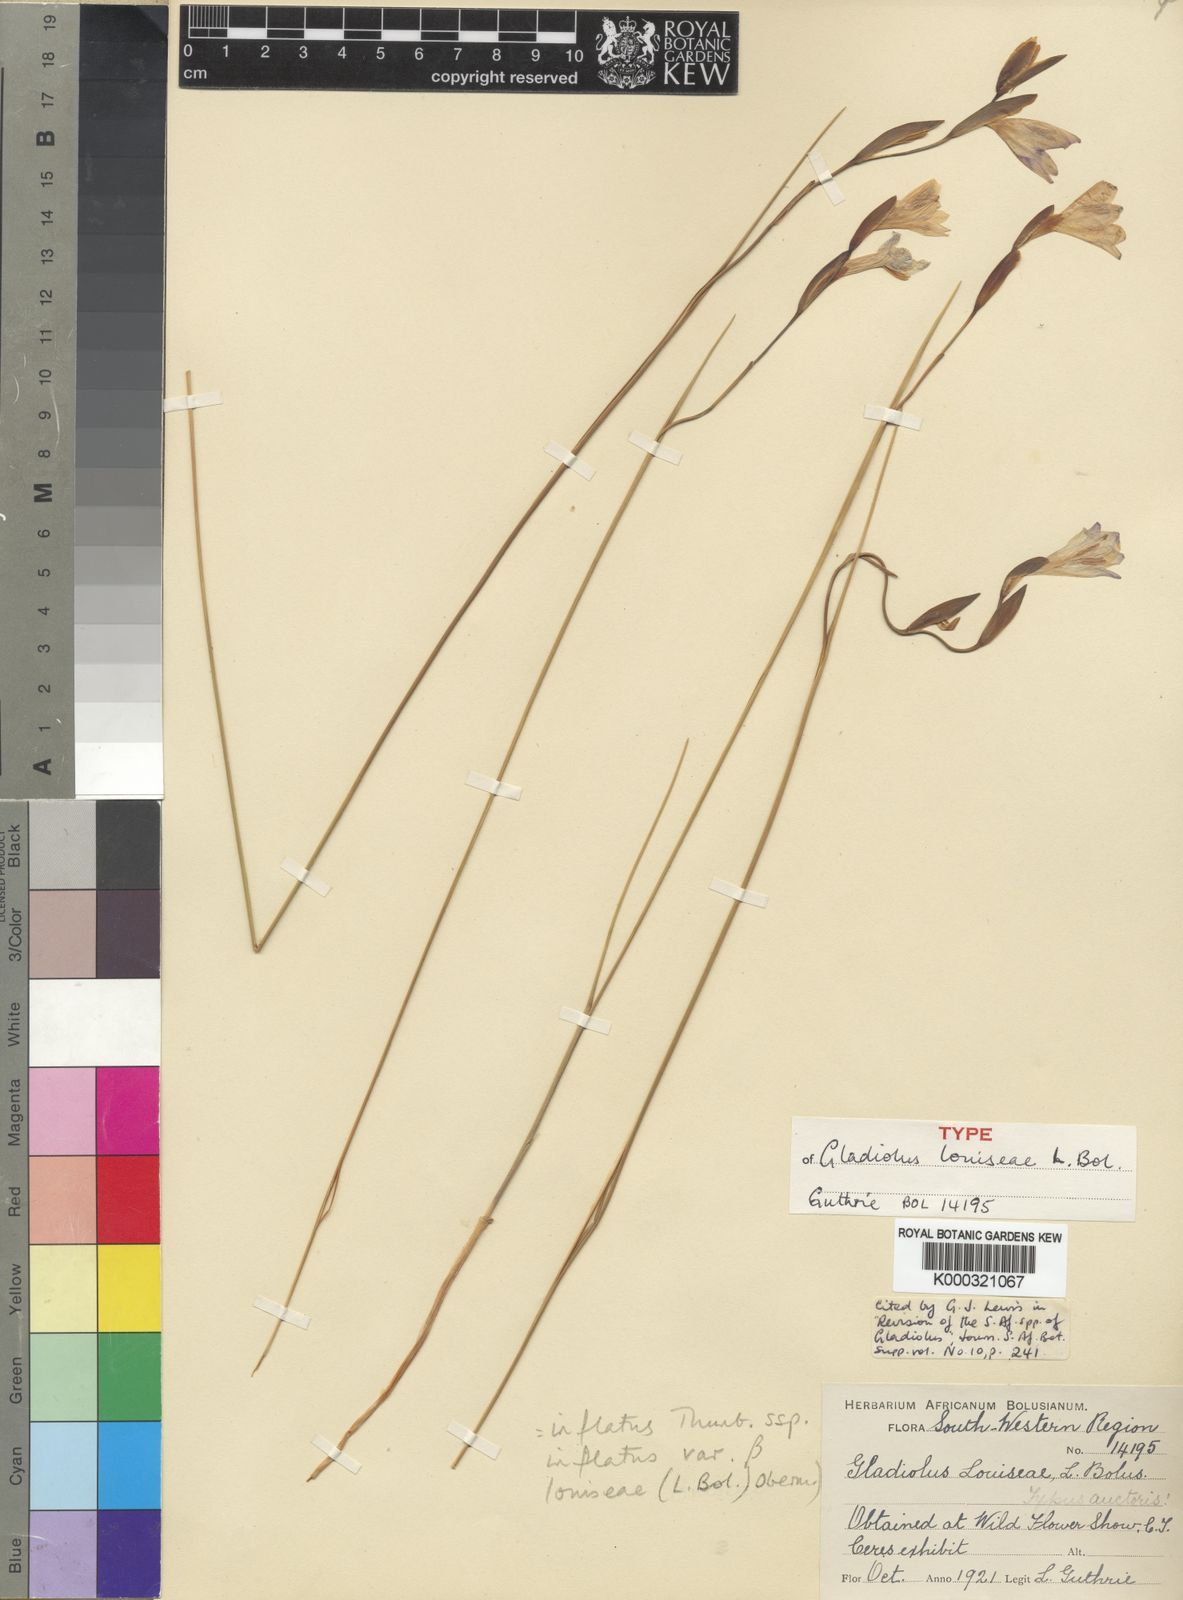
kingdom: Plantae
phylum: Tracheophyta
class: Liliopsida
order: Asparagales
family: Iridaceae
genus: Gladiolus
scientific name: Gladiolus inflatus
